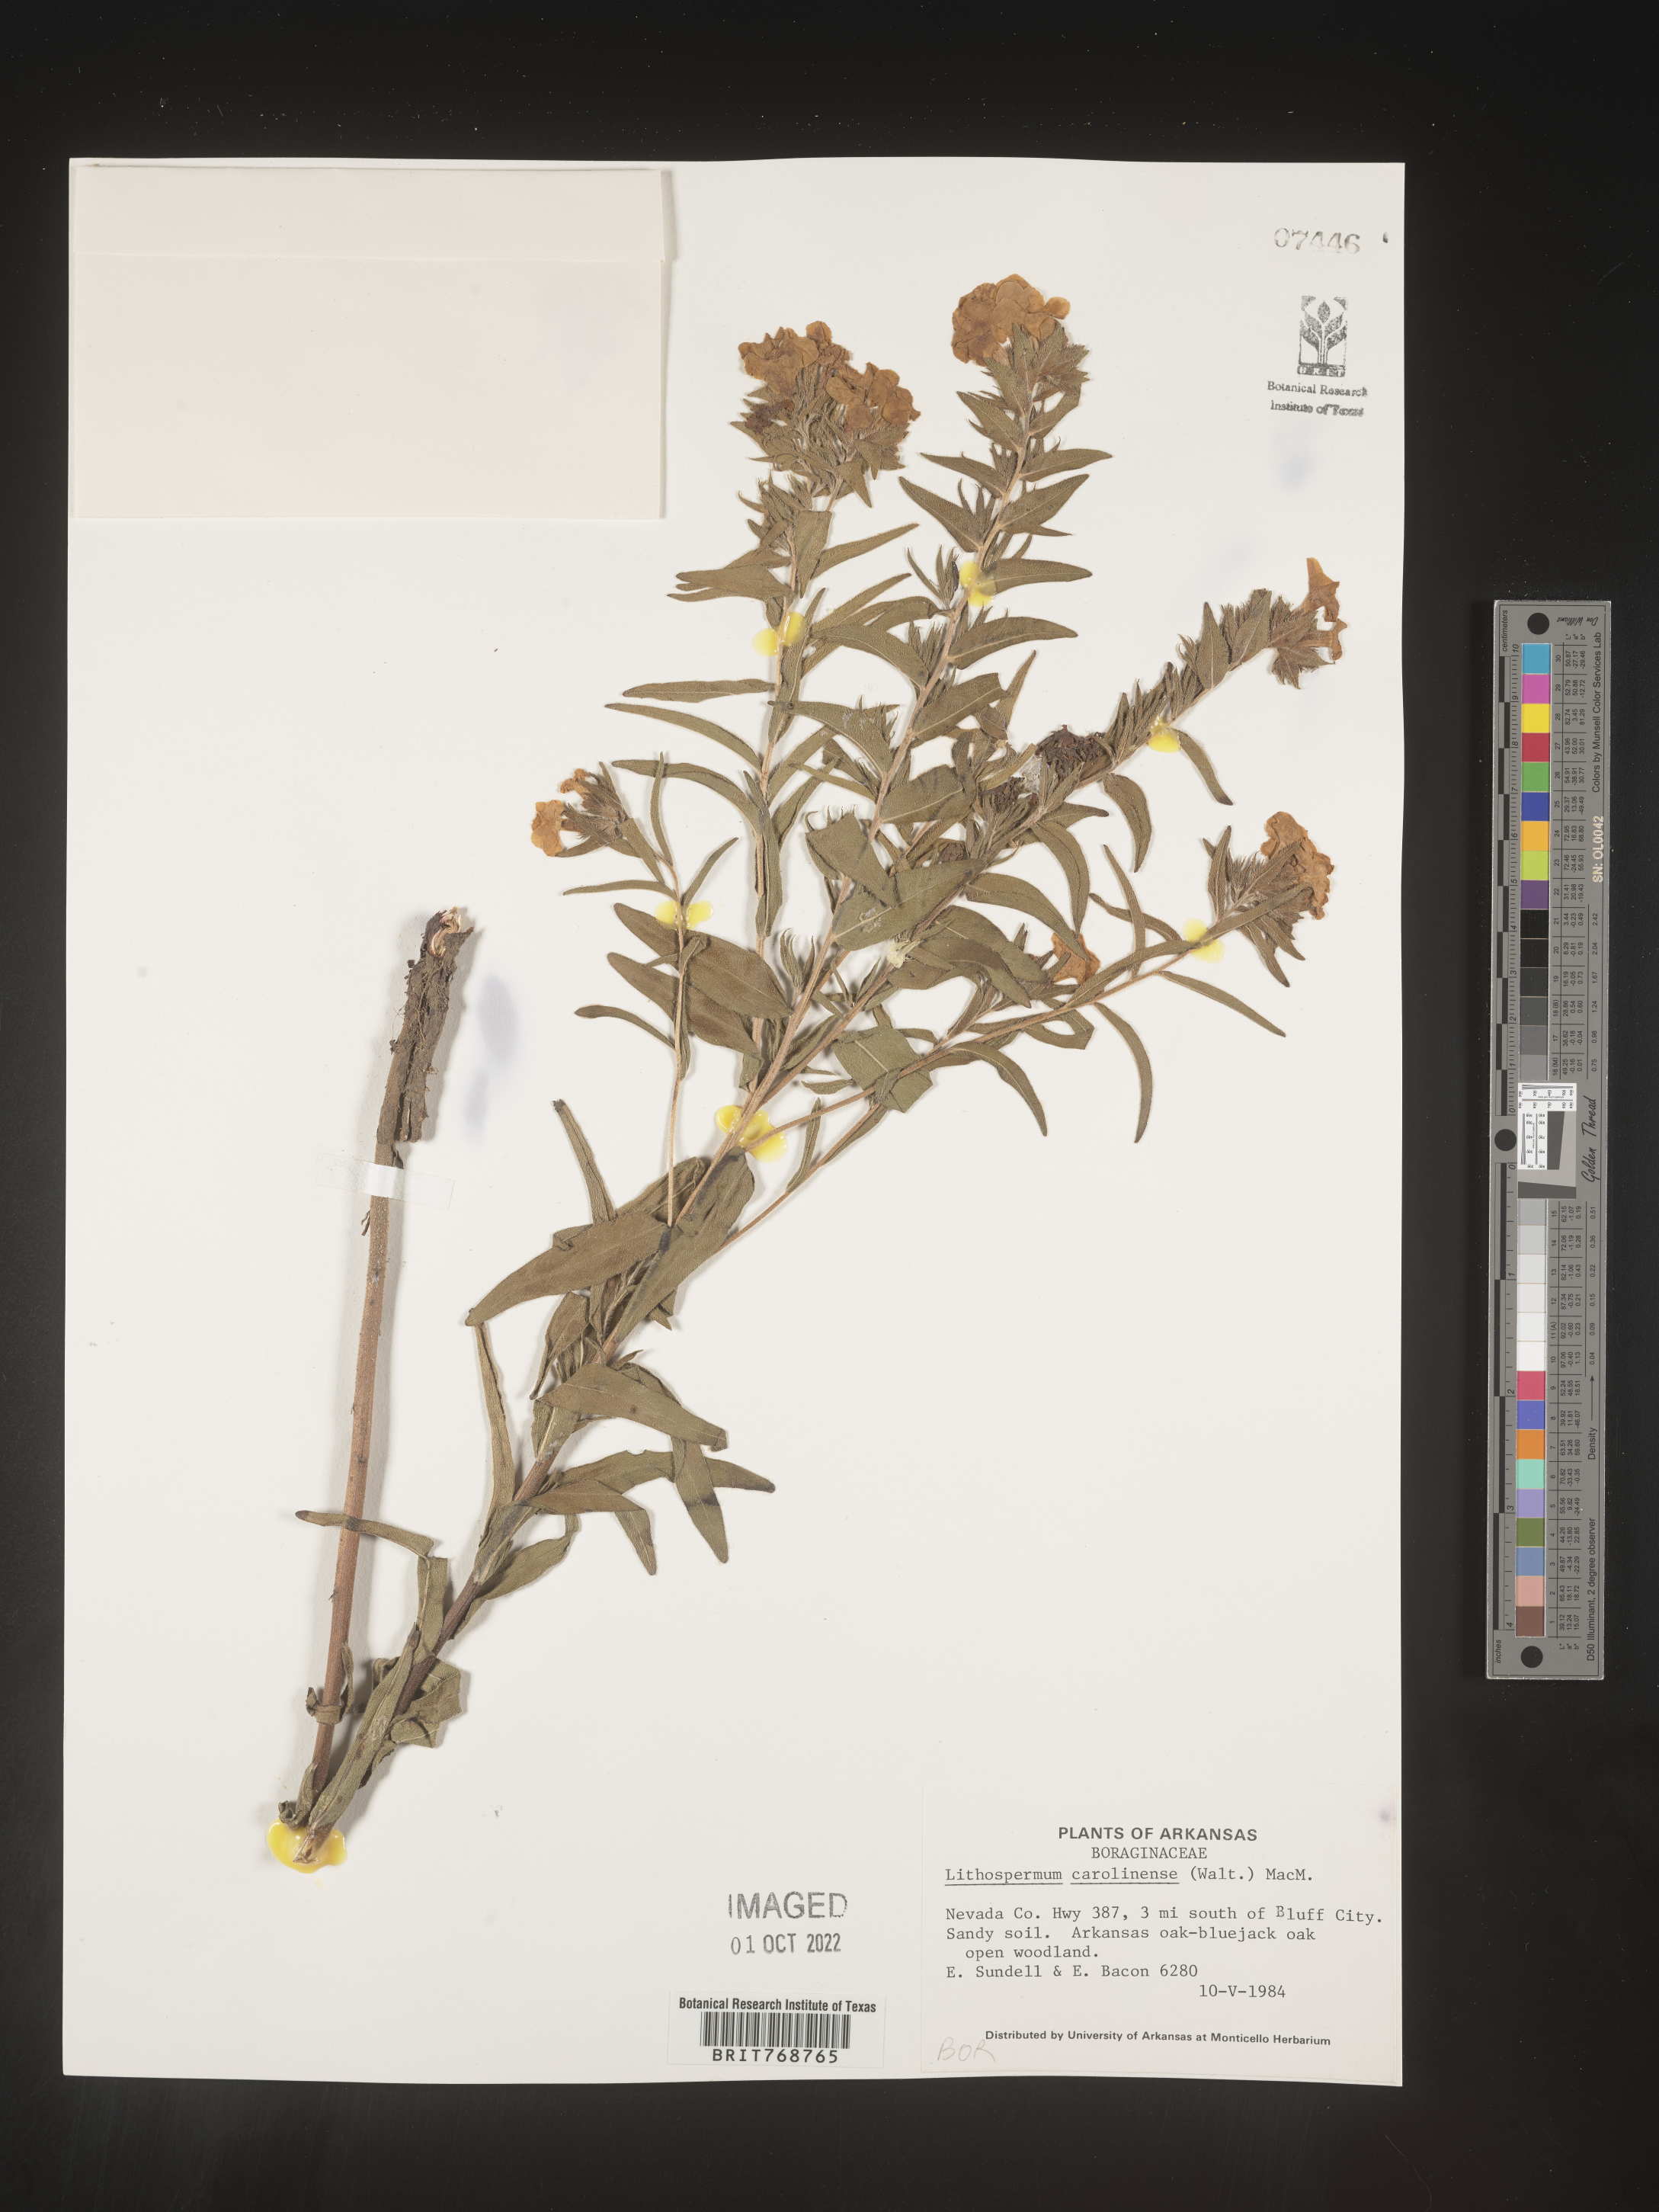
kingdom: Plantae
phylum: Tracheophyta
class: Magnoliopsida
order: Boraginales
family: Boraginaceae
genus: Lithospermum
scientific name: Lithospermum caroliniense
